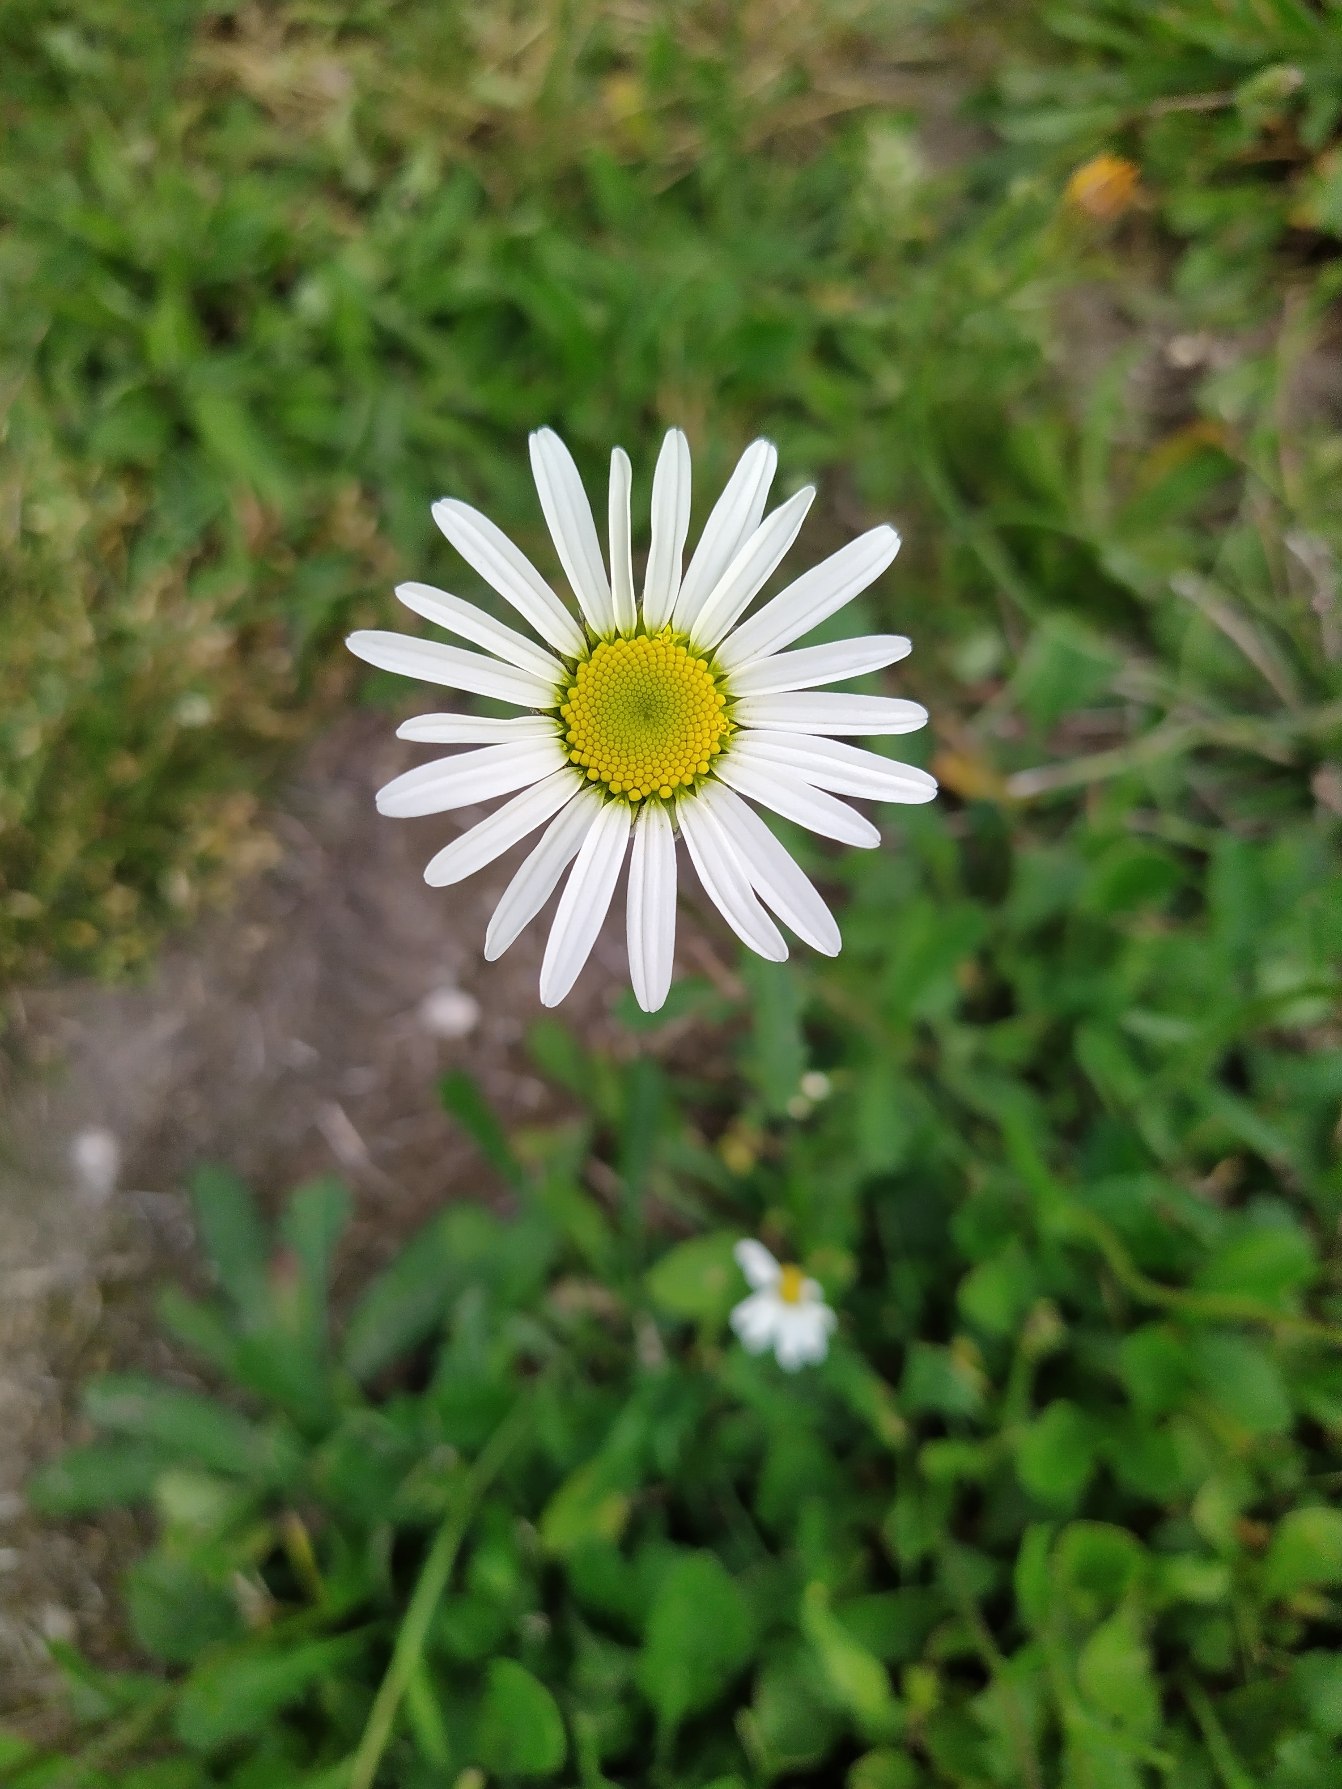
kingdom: Plantae
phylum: Tracheophyta
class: Magnoliopsida
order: Asterales
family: Asteraceae
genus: Leucanthemum
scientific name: Leucanthemum vulgare
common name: Hvid okseøje
